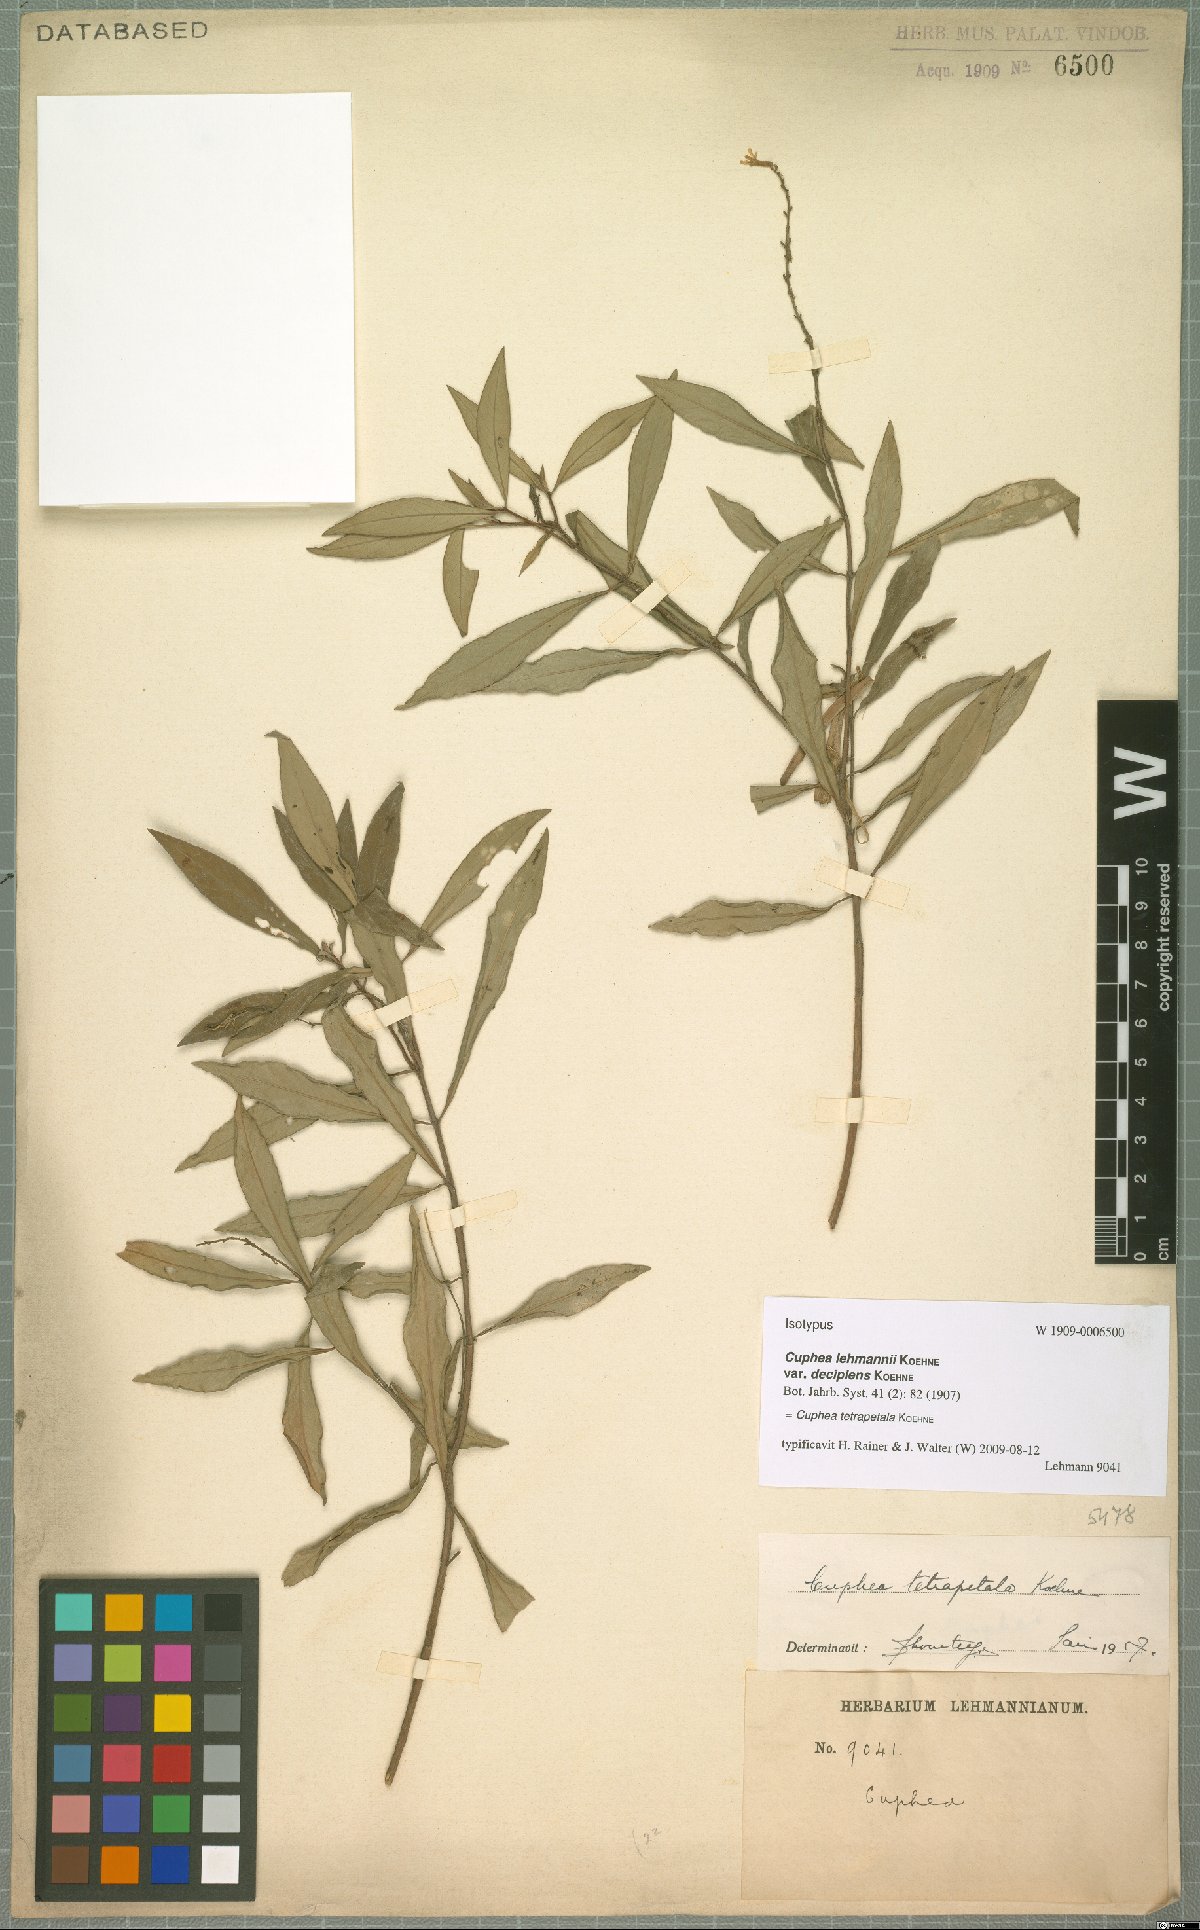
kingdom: Plantae
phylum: Tracheophyta
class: Magnoliopsida
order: Myrtales
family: Lythraceae
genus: Cuphea
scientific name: Cuphea tetrapetala
